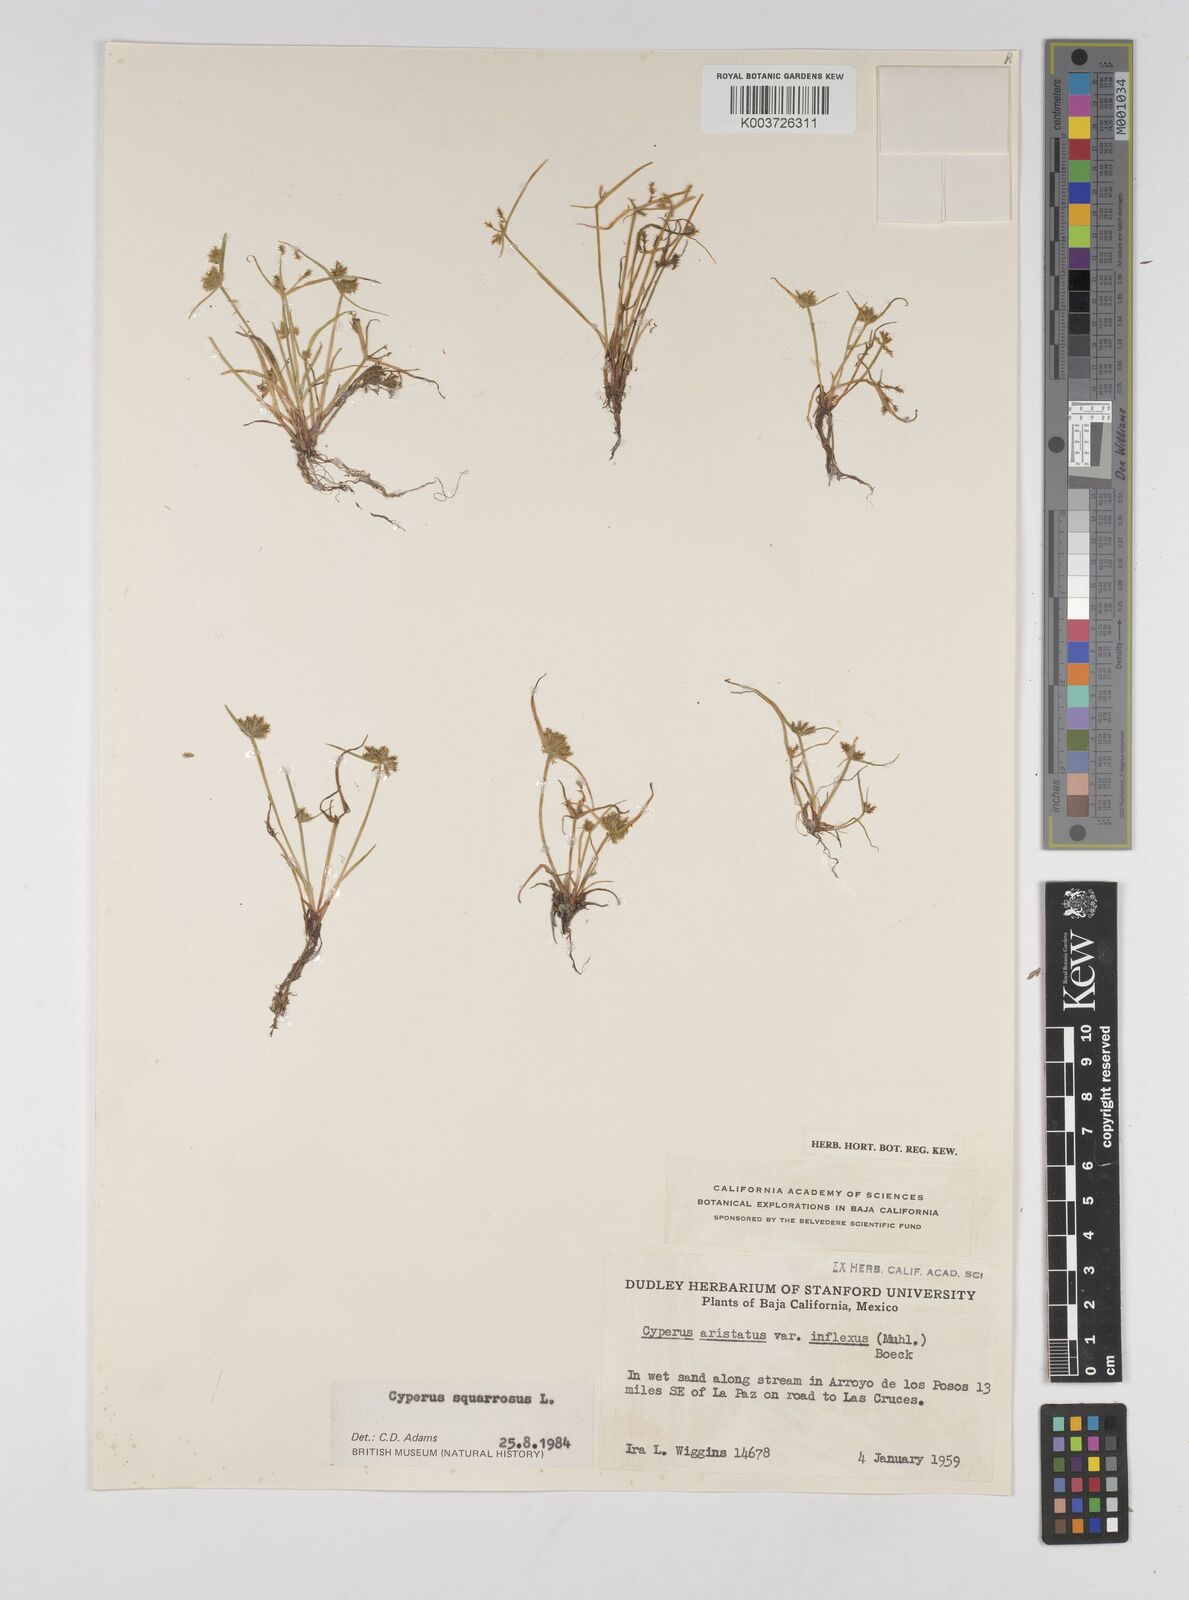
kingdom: Plantae
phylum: Tracheophyta
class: Liliopsida
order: Poales
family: Cyperaceae
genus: Cyperus
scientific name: Cyperus squarrosus
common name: Awned cyperus
